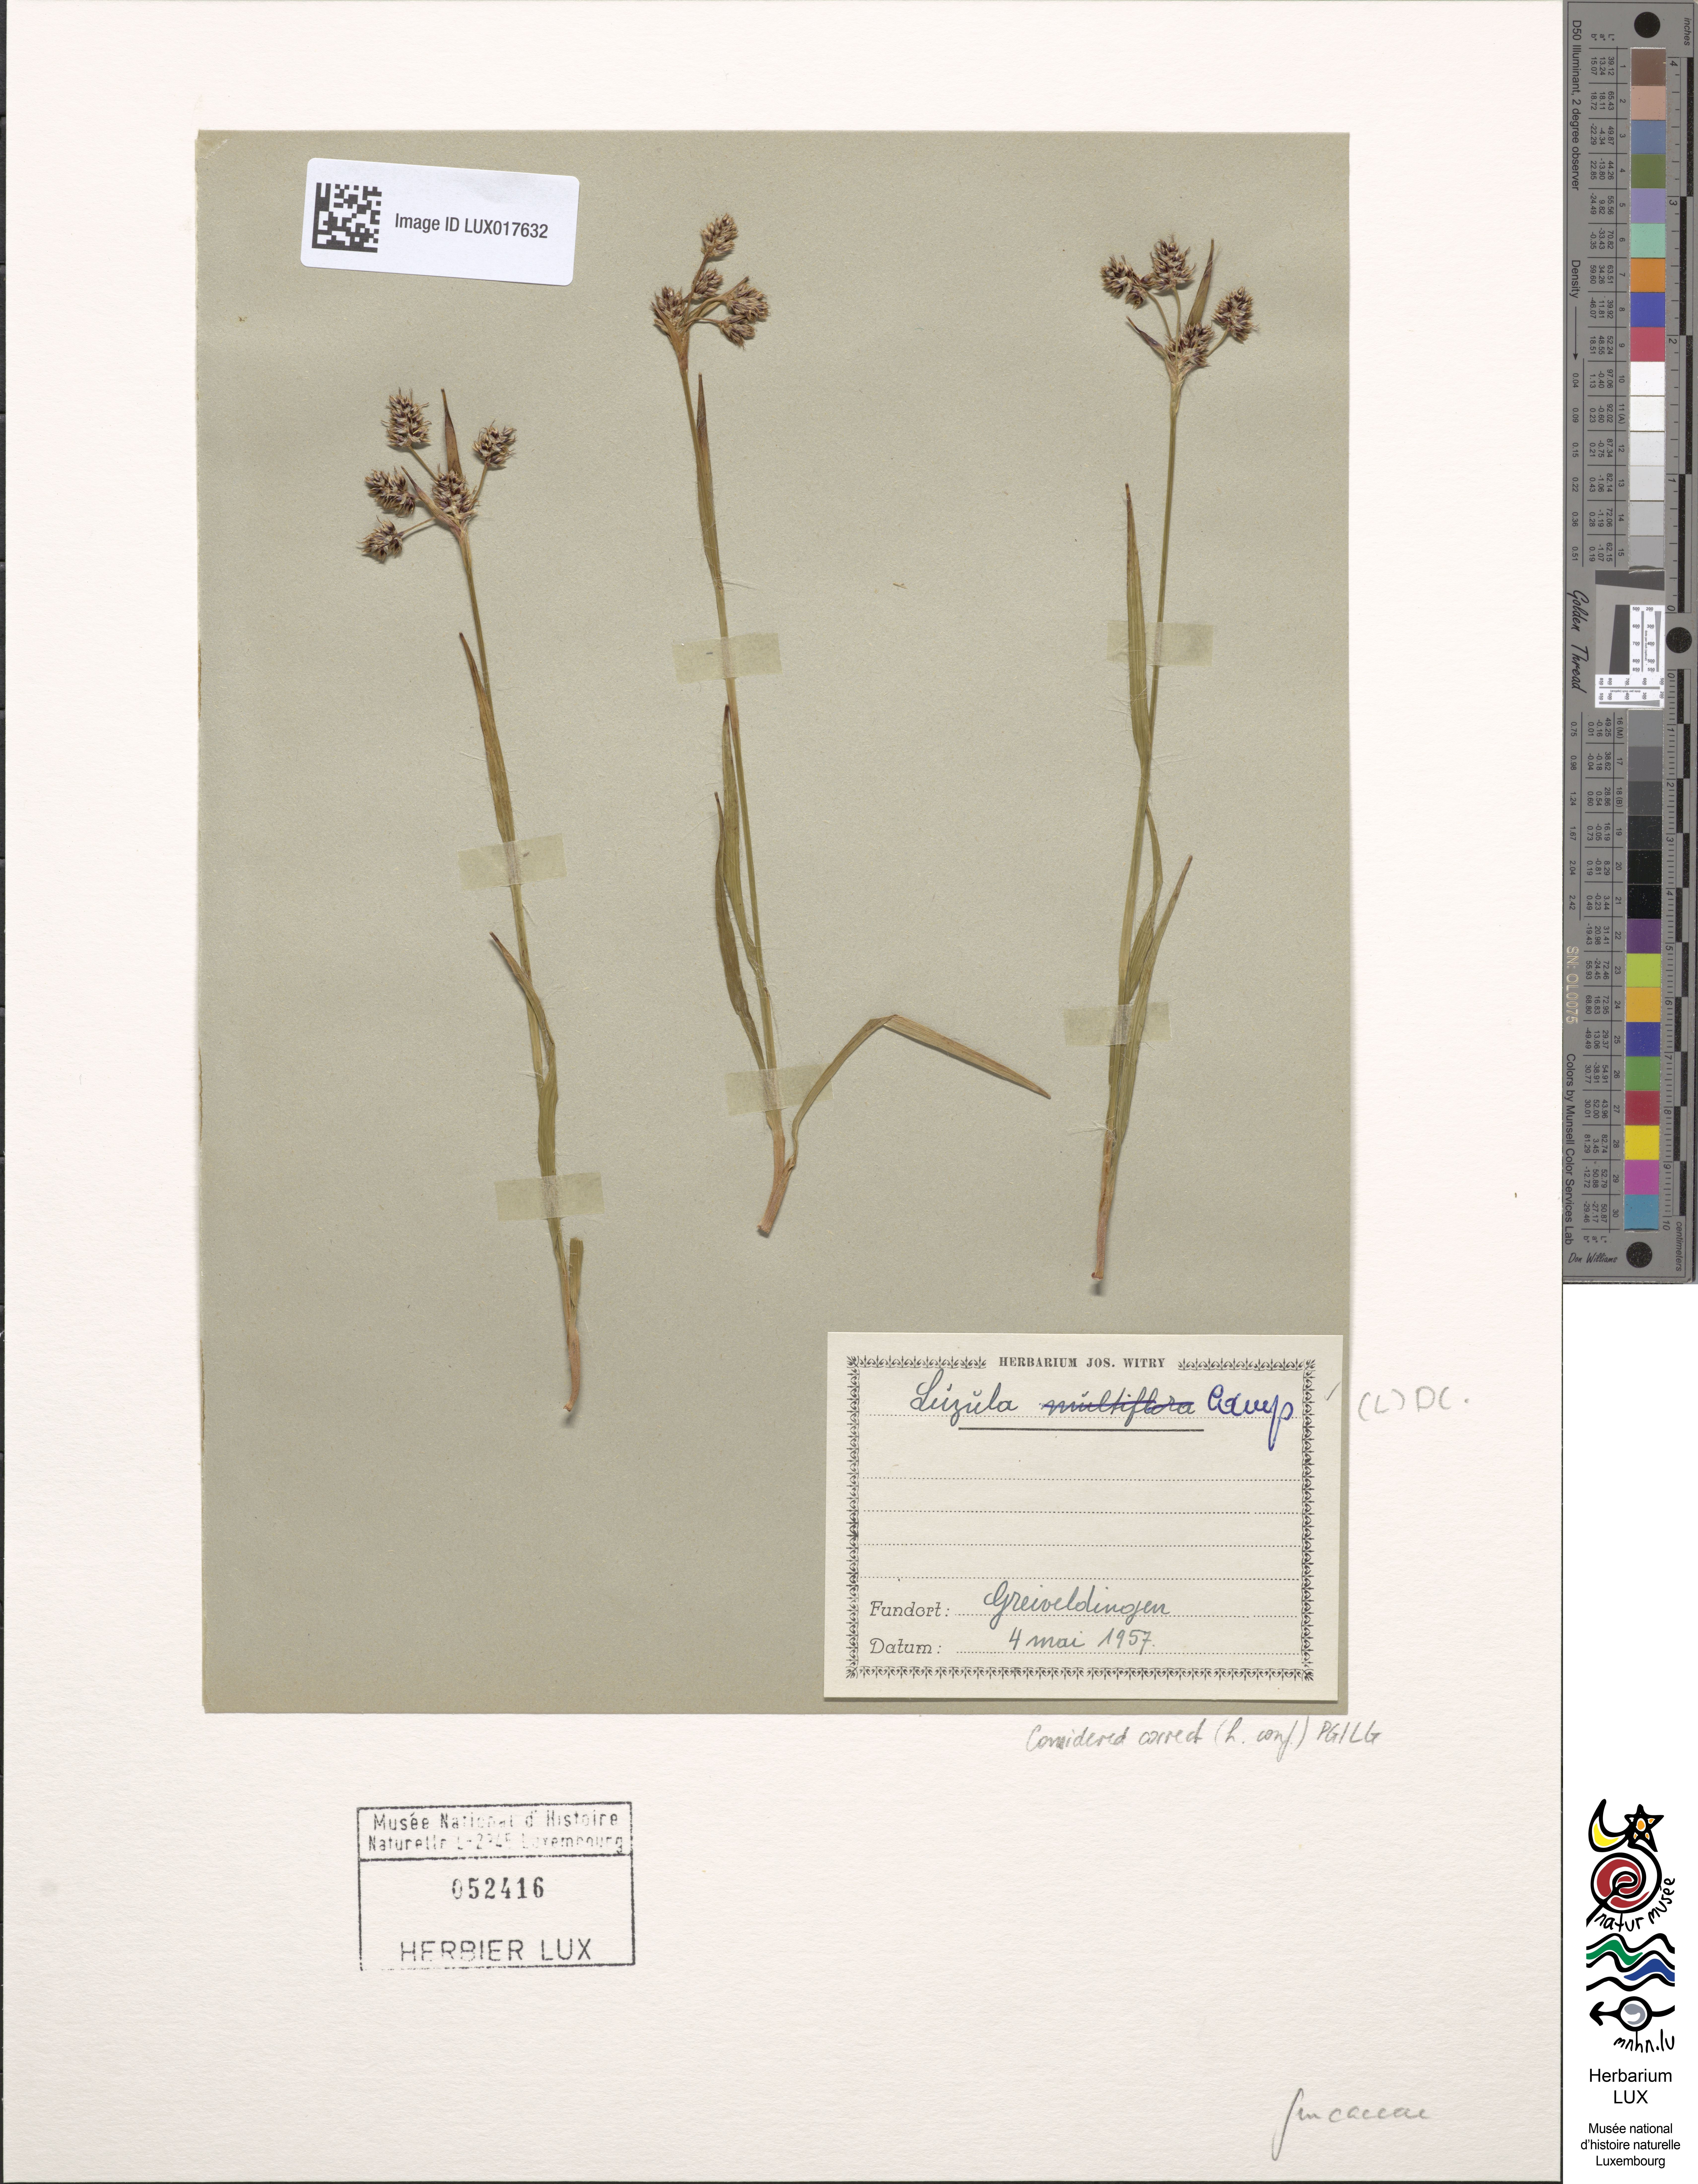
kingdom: Plantae
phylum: Tracheophyta
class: Liliopsida
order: Poales
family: Juncaceae
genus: Luzula
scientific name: Luzula campestris
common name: Field wood-rush
